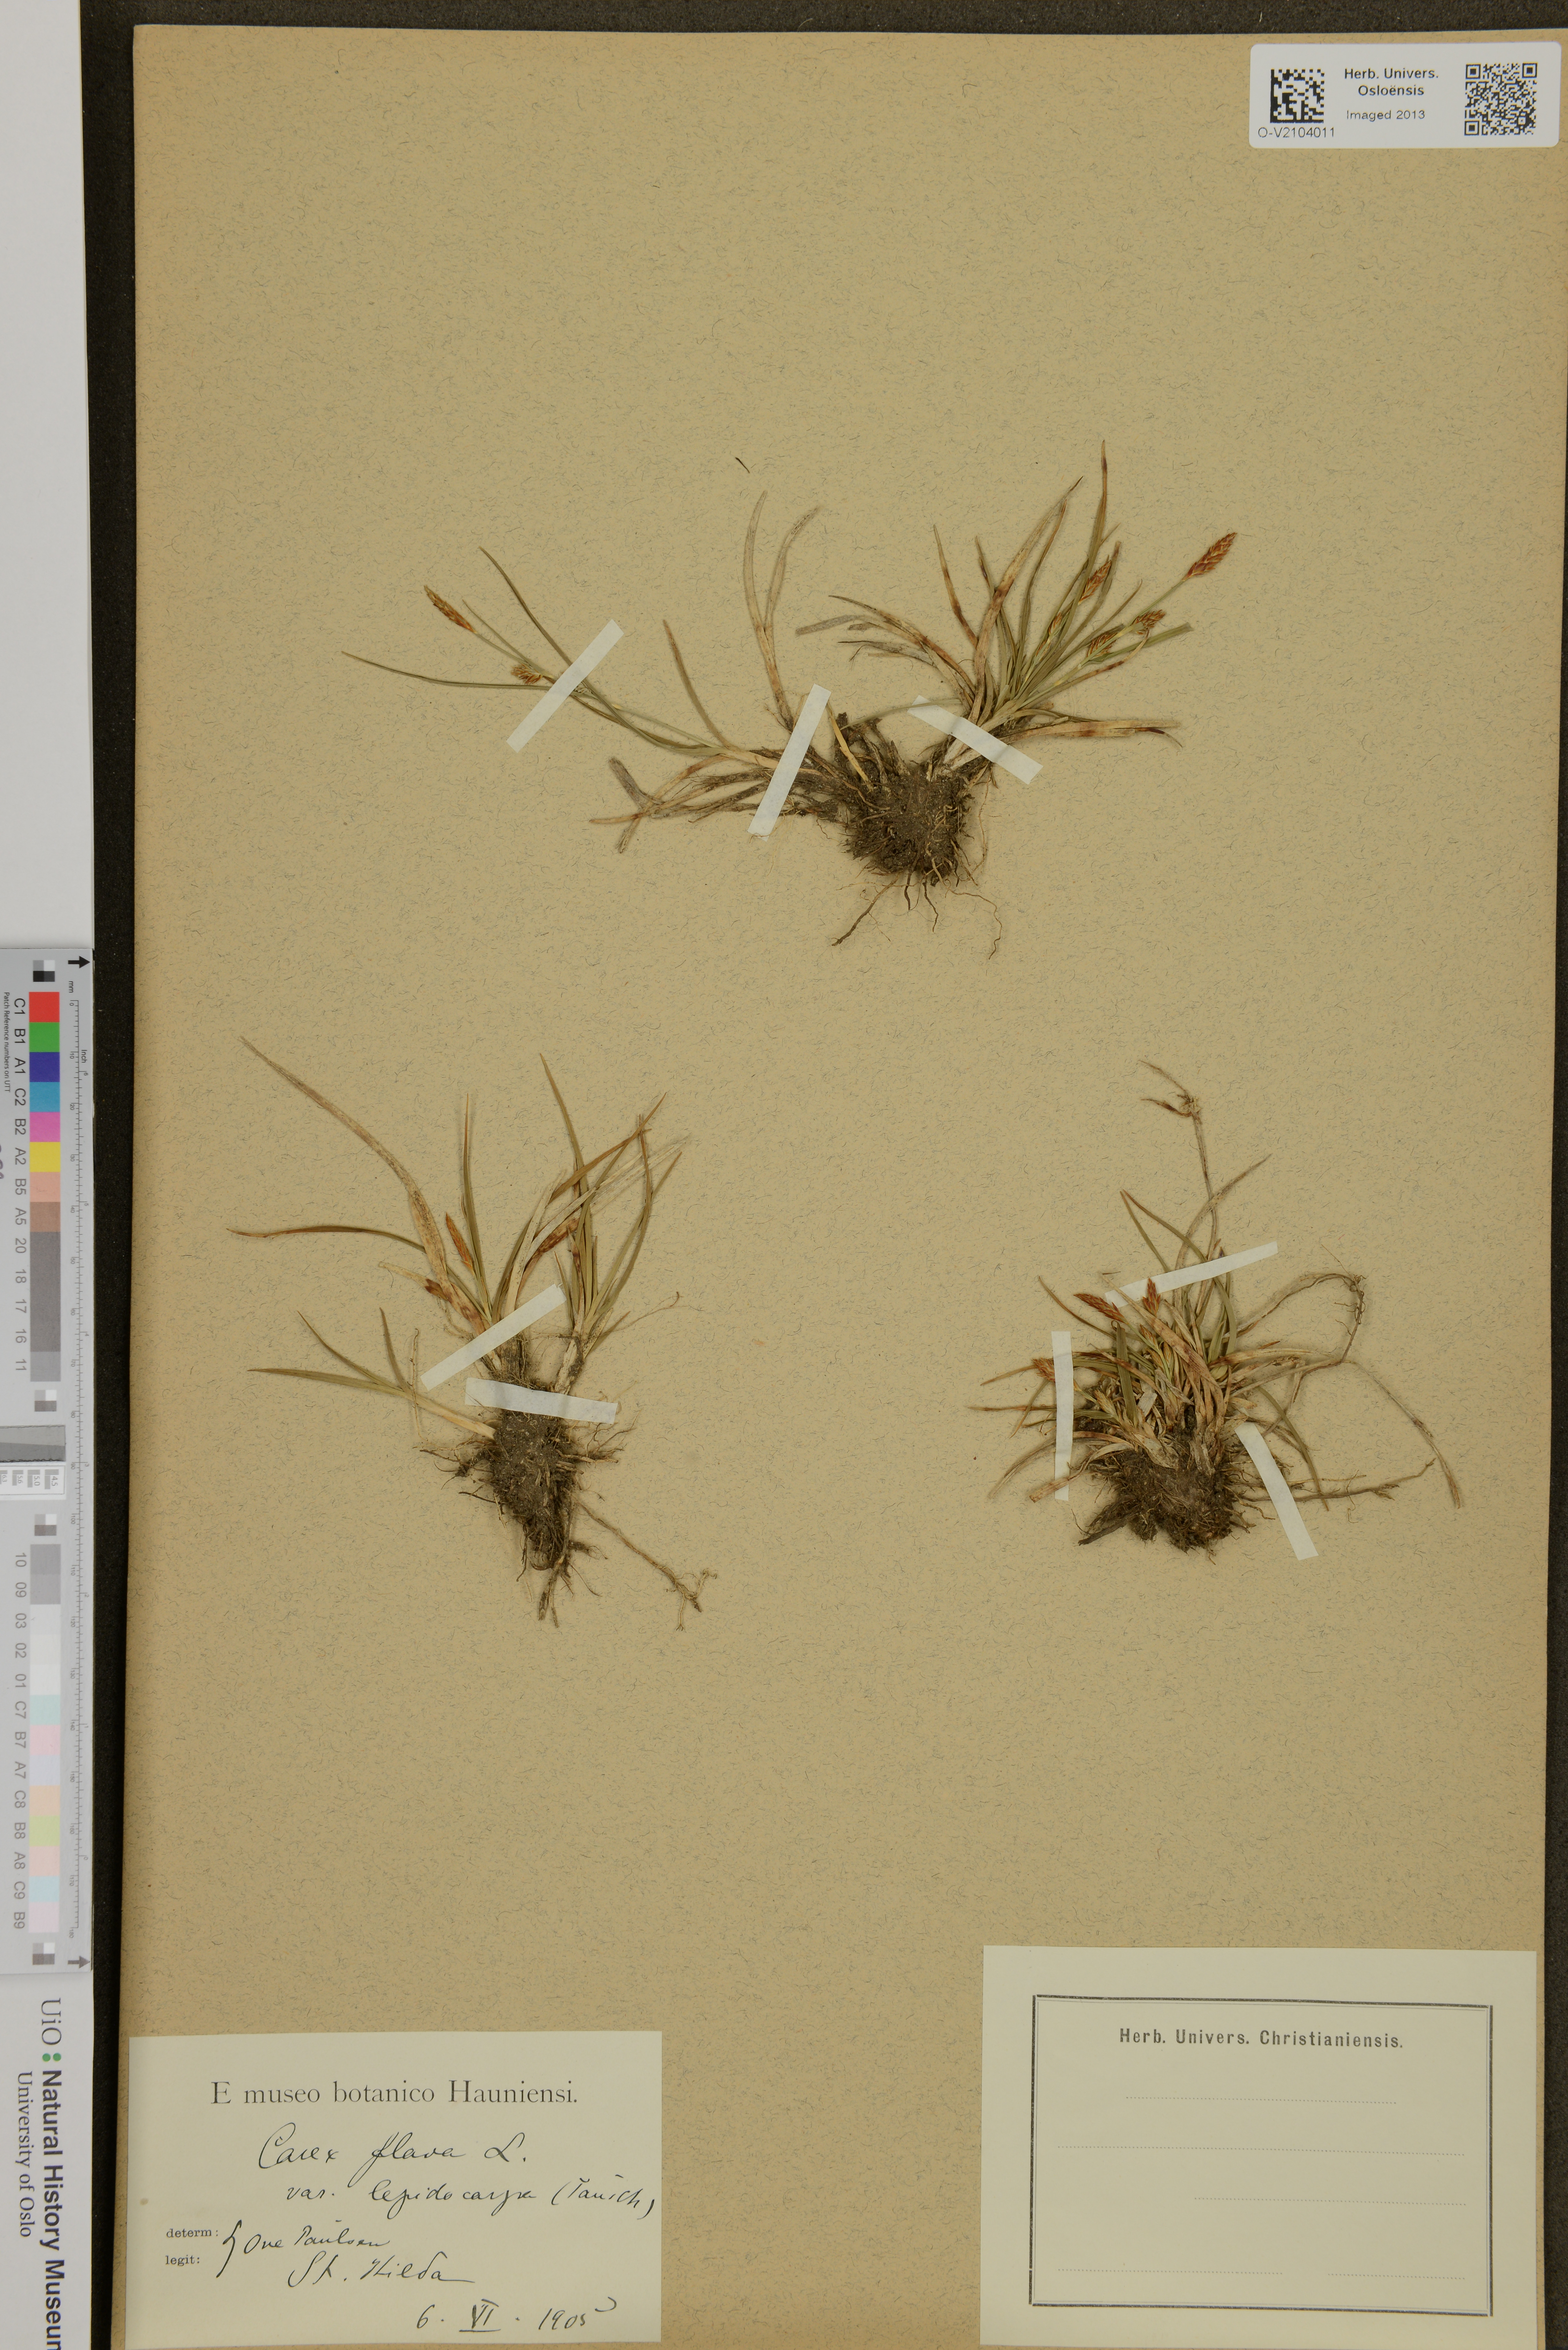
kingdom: Plantae
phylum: Tracheophyta
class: Liliopsida
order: Poales
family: Cyperaceae
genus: Carex
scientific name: Carex flava
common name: Large yellow-sedge
